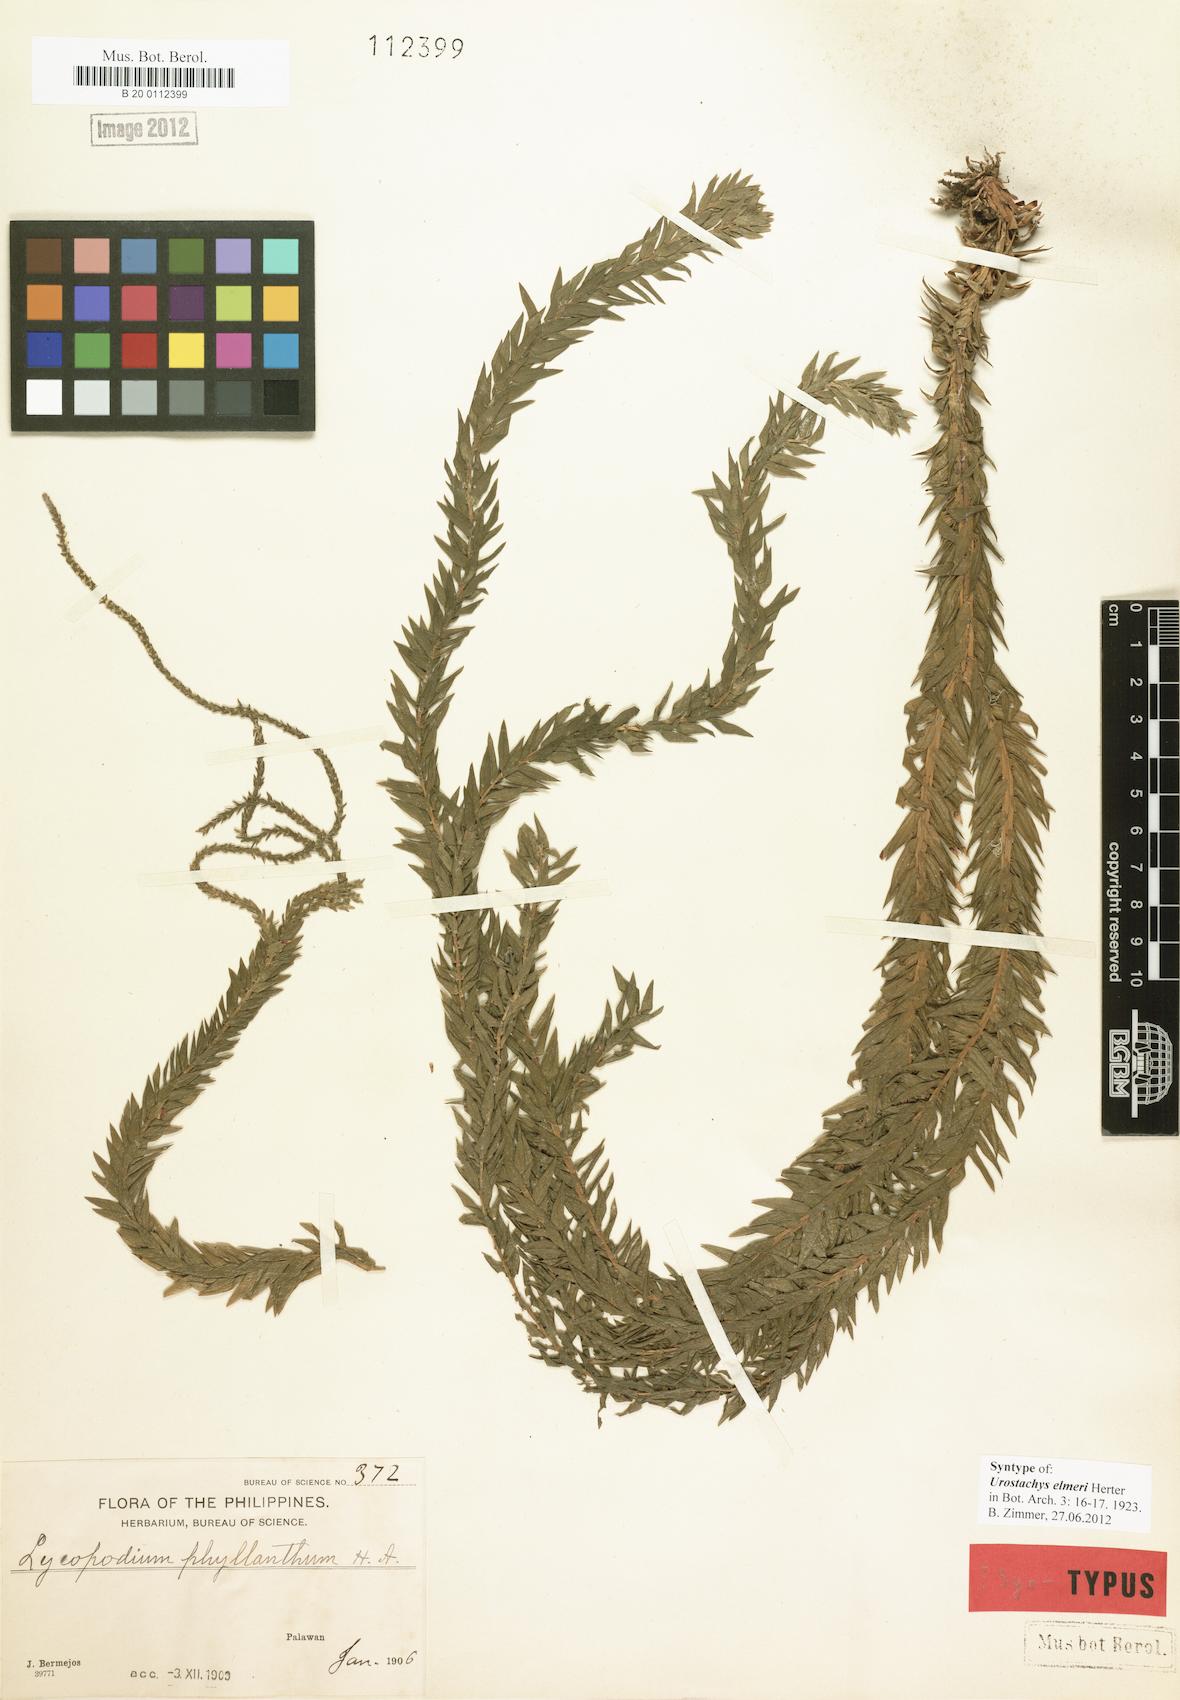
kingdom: Plantae
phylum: Tracheophyta
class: Lycopodiopsida
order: Lycopodiales
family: Lycopodiaceae
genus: Phlegmariurus
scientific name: Phlegmariurus elmeri
